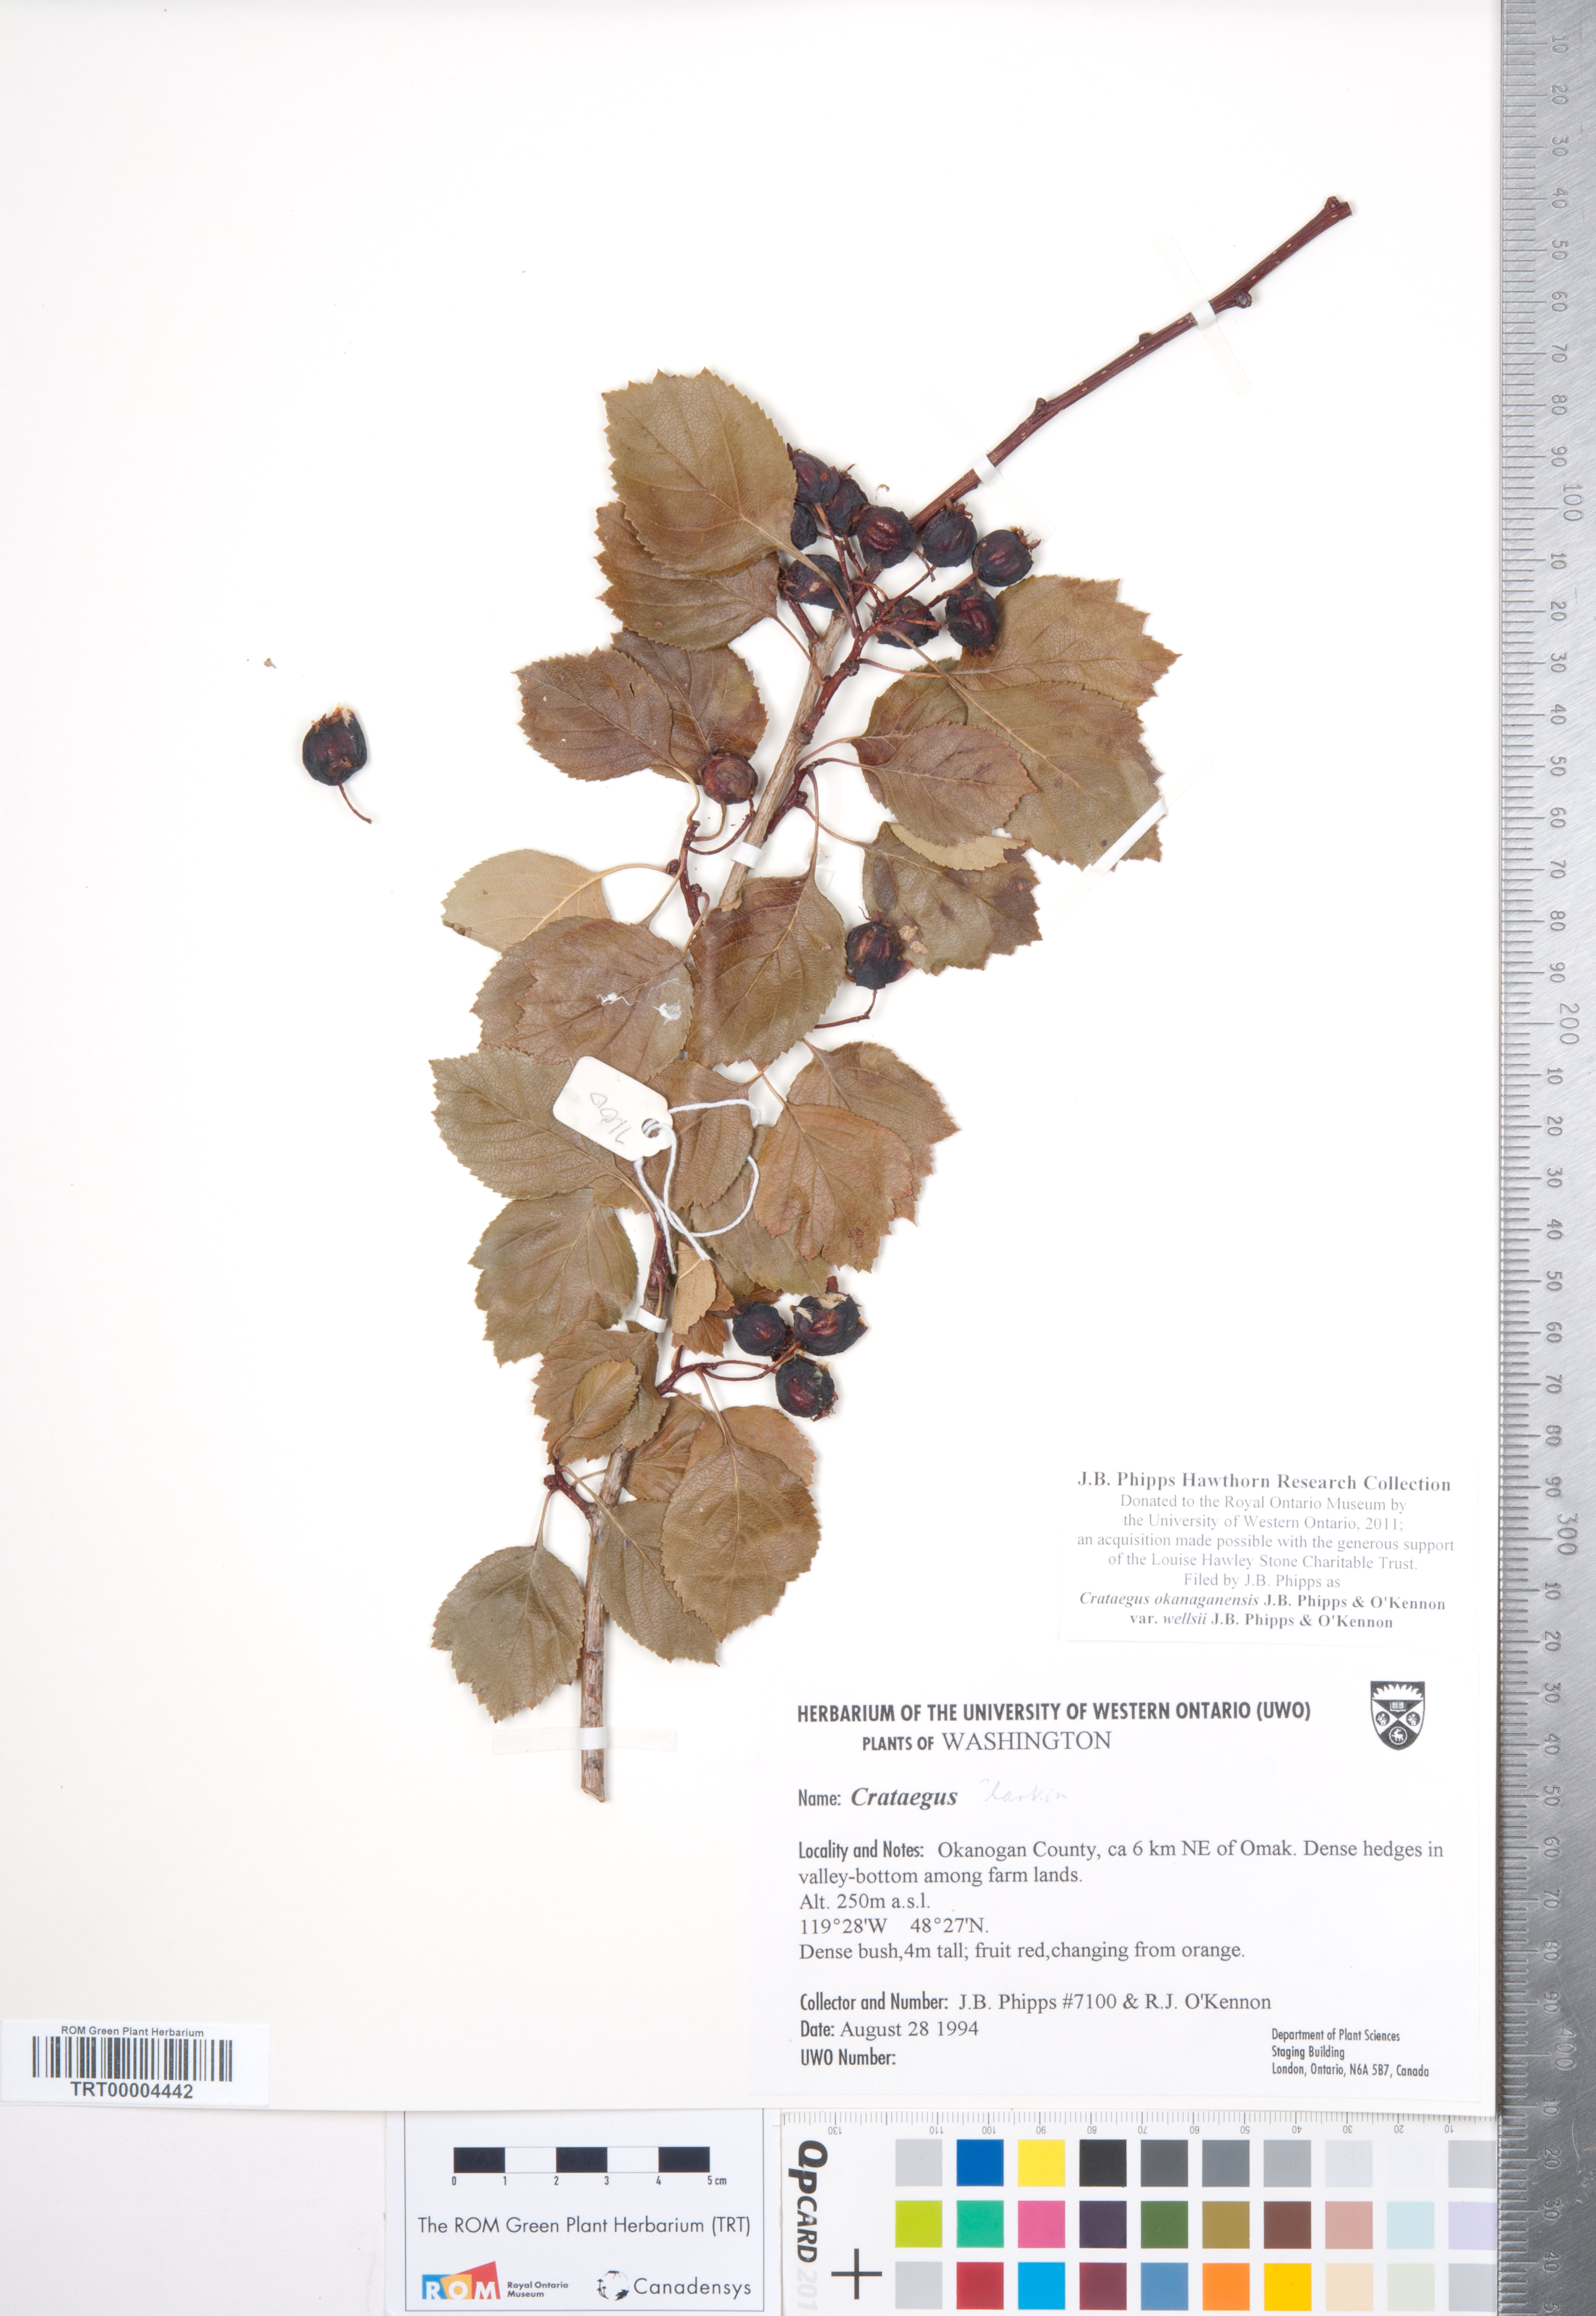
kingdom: Plantae
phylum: Tracheophyta
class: Magnoliopsida
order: Rosales
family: Rosaceae
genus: Crataegus
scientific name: Crataegus okanaganensis
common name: Okanagan valley hawthorn
